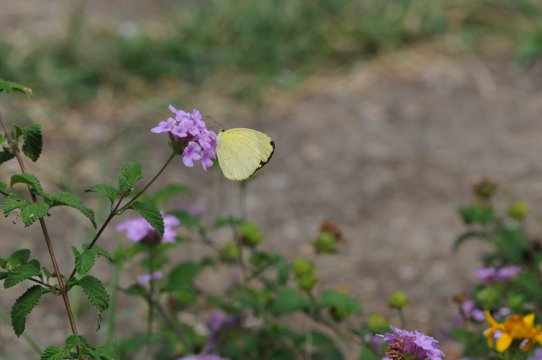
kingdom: Animalia
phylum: Arthropoda
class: Insecta
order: Lepidoptera
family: Pieridae
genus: Eurema
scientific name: Eurema hecabe
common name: Common Grass Yellow
